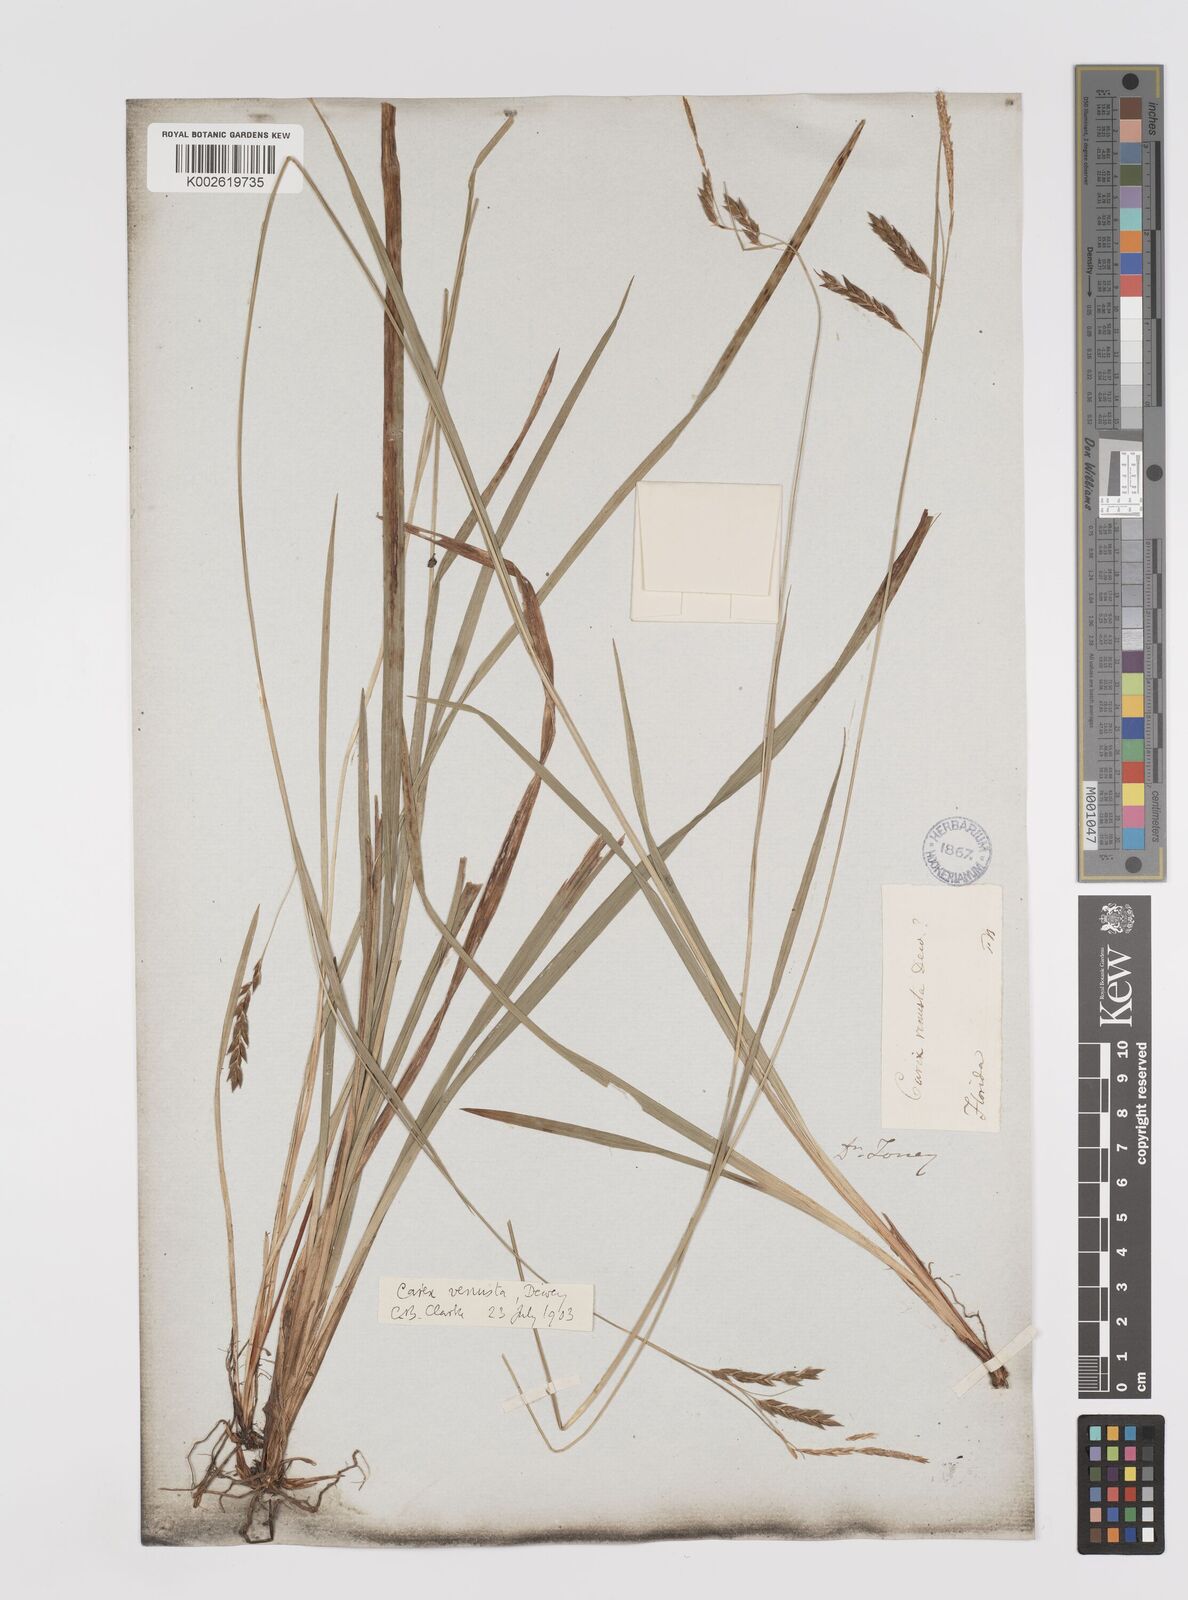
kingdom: Plantae
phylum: Tracheophyta
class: Liliopsida
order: Poales
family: Cyperaceae
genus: Carex
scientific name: Carex venusta
